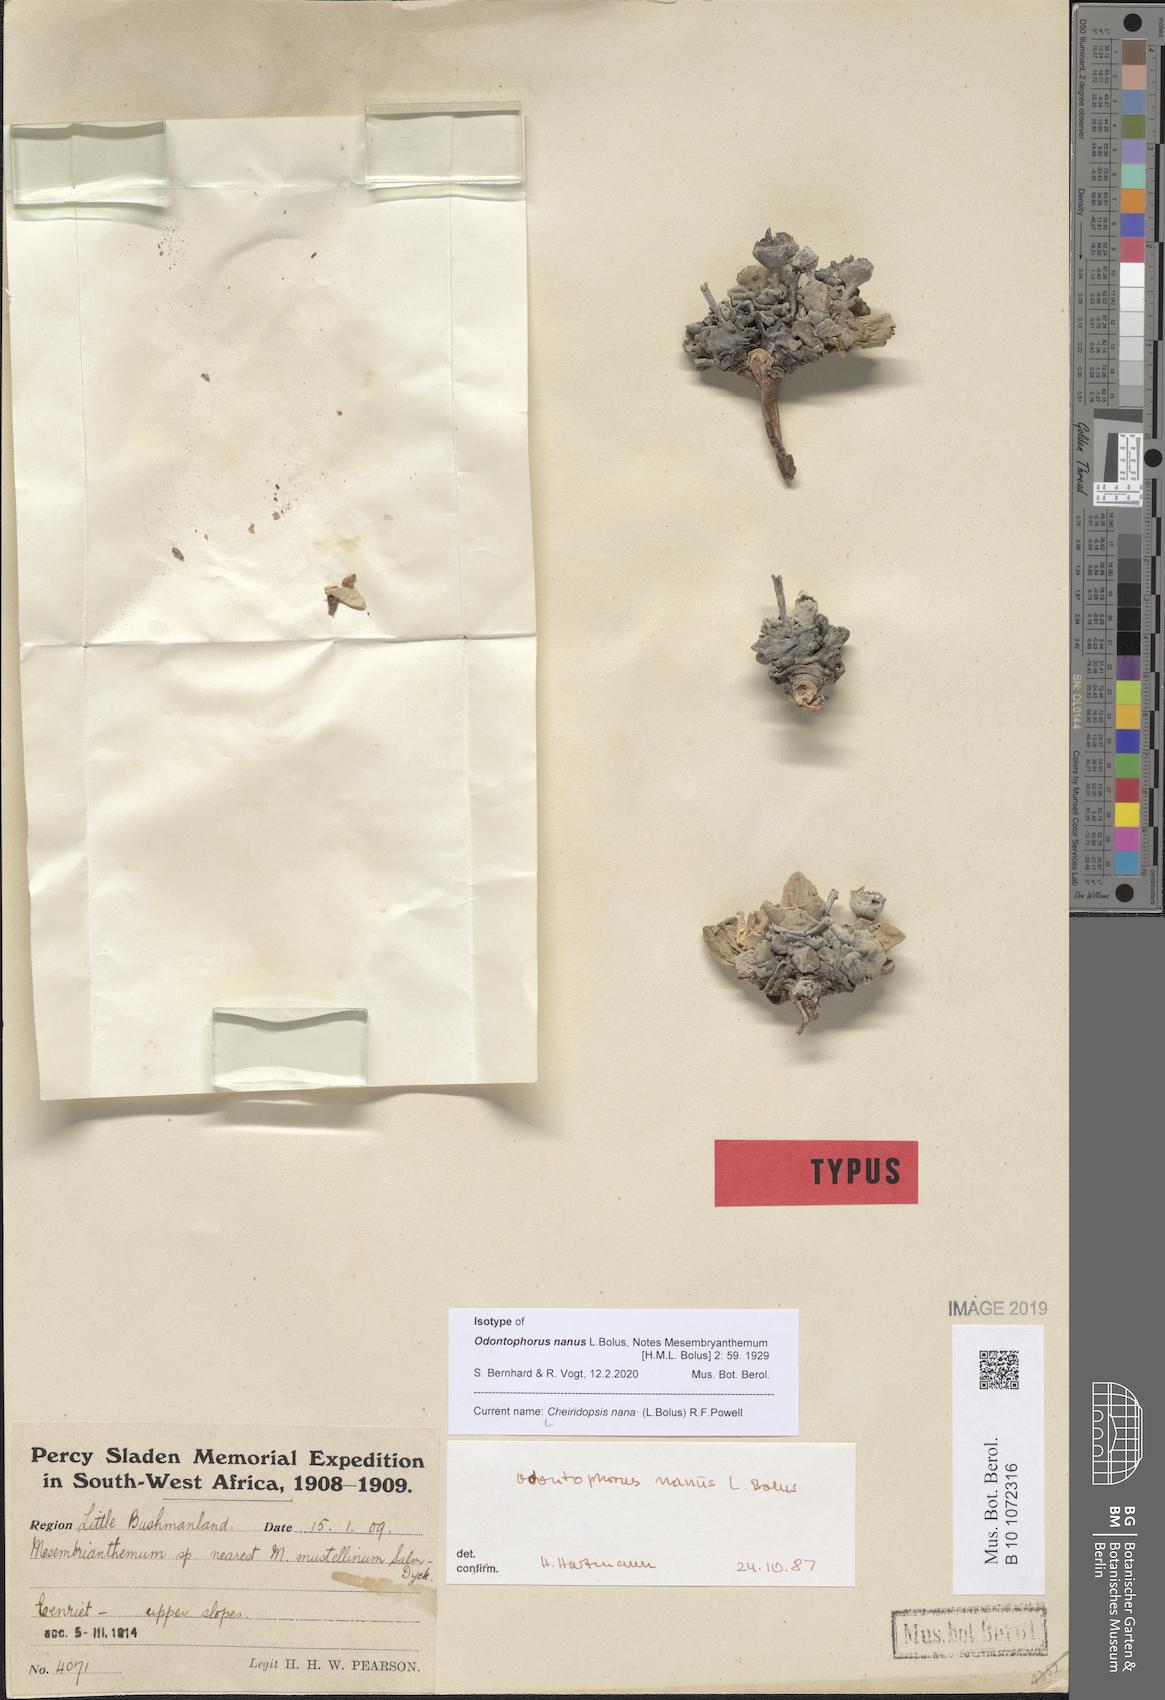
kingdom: Plantae
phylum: Tracheophyta
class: Magnoliopsida
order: Caryophyllales
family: Aizoaceae
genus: Cheiridopsis
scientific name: Cheiridopsis nana
